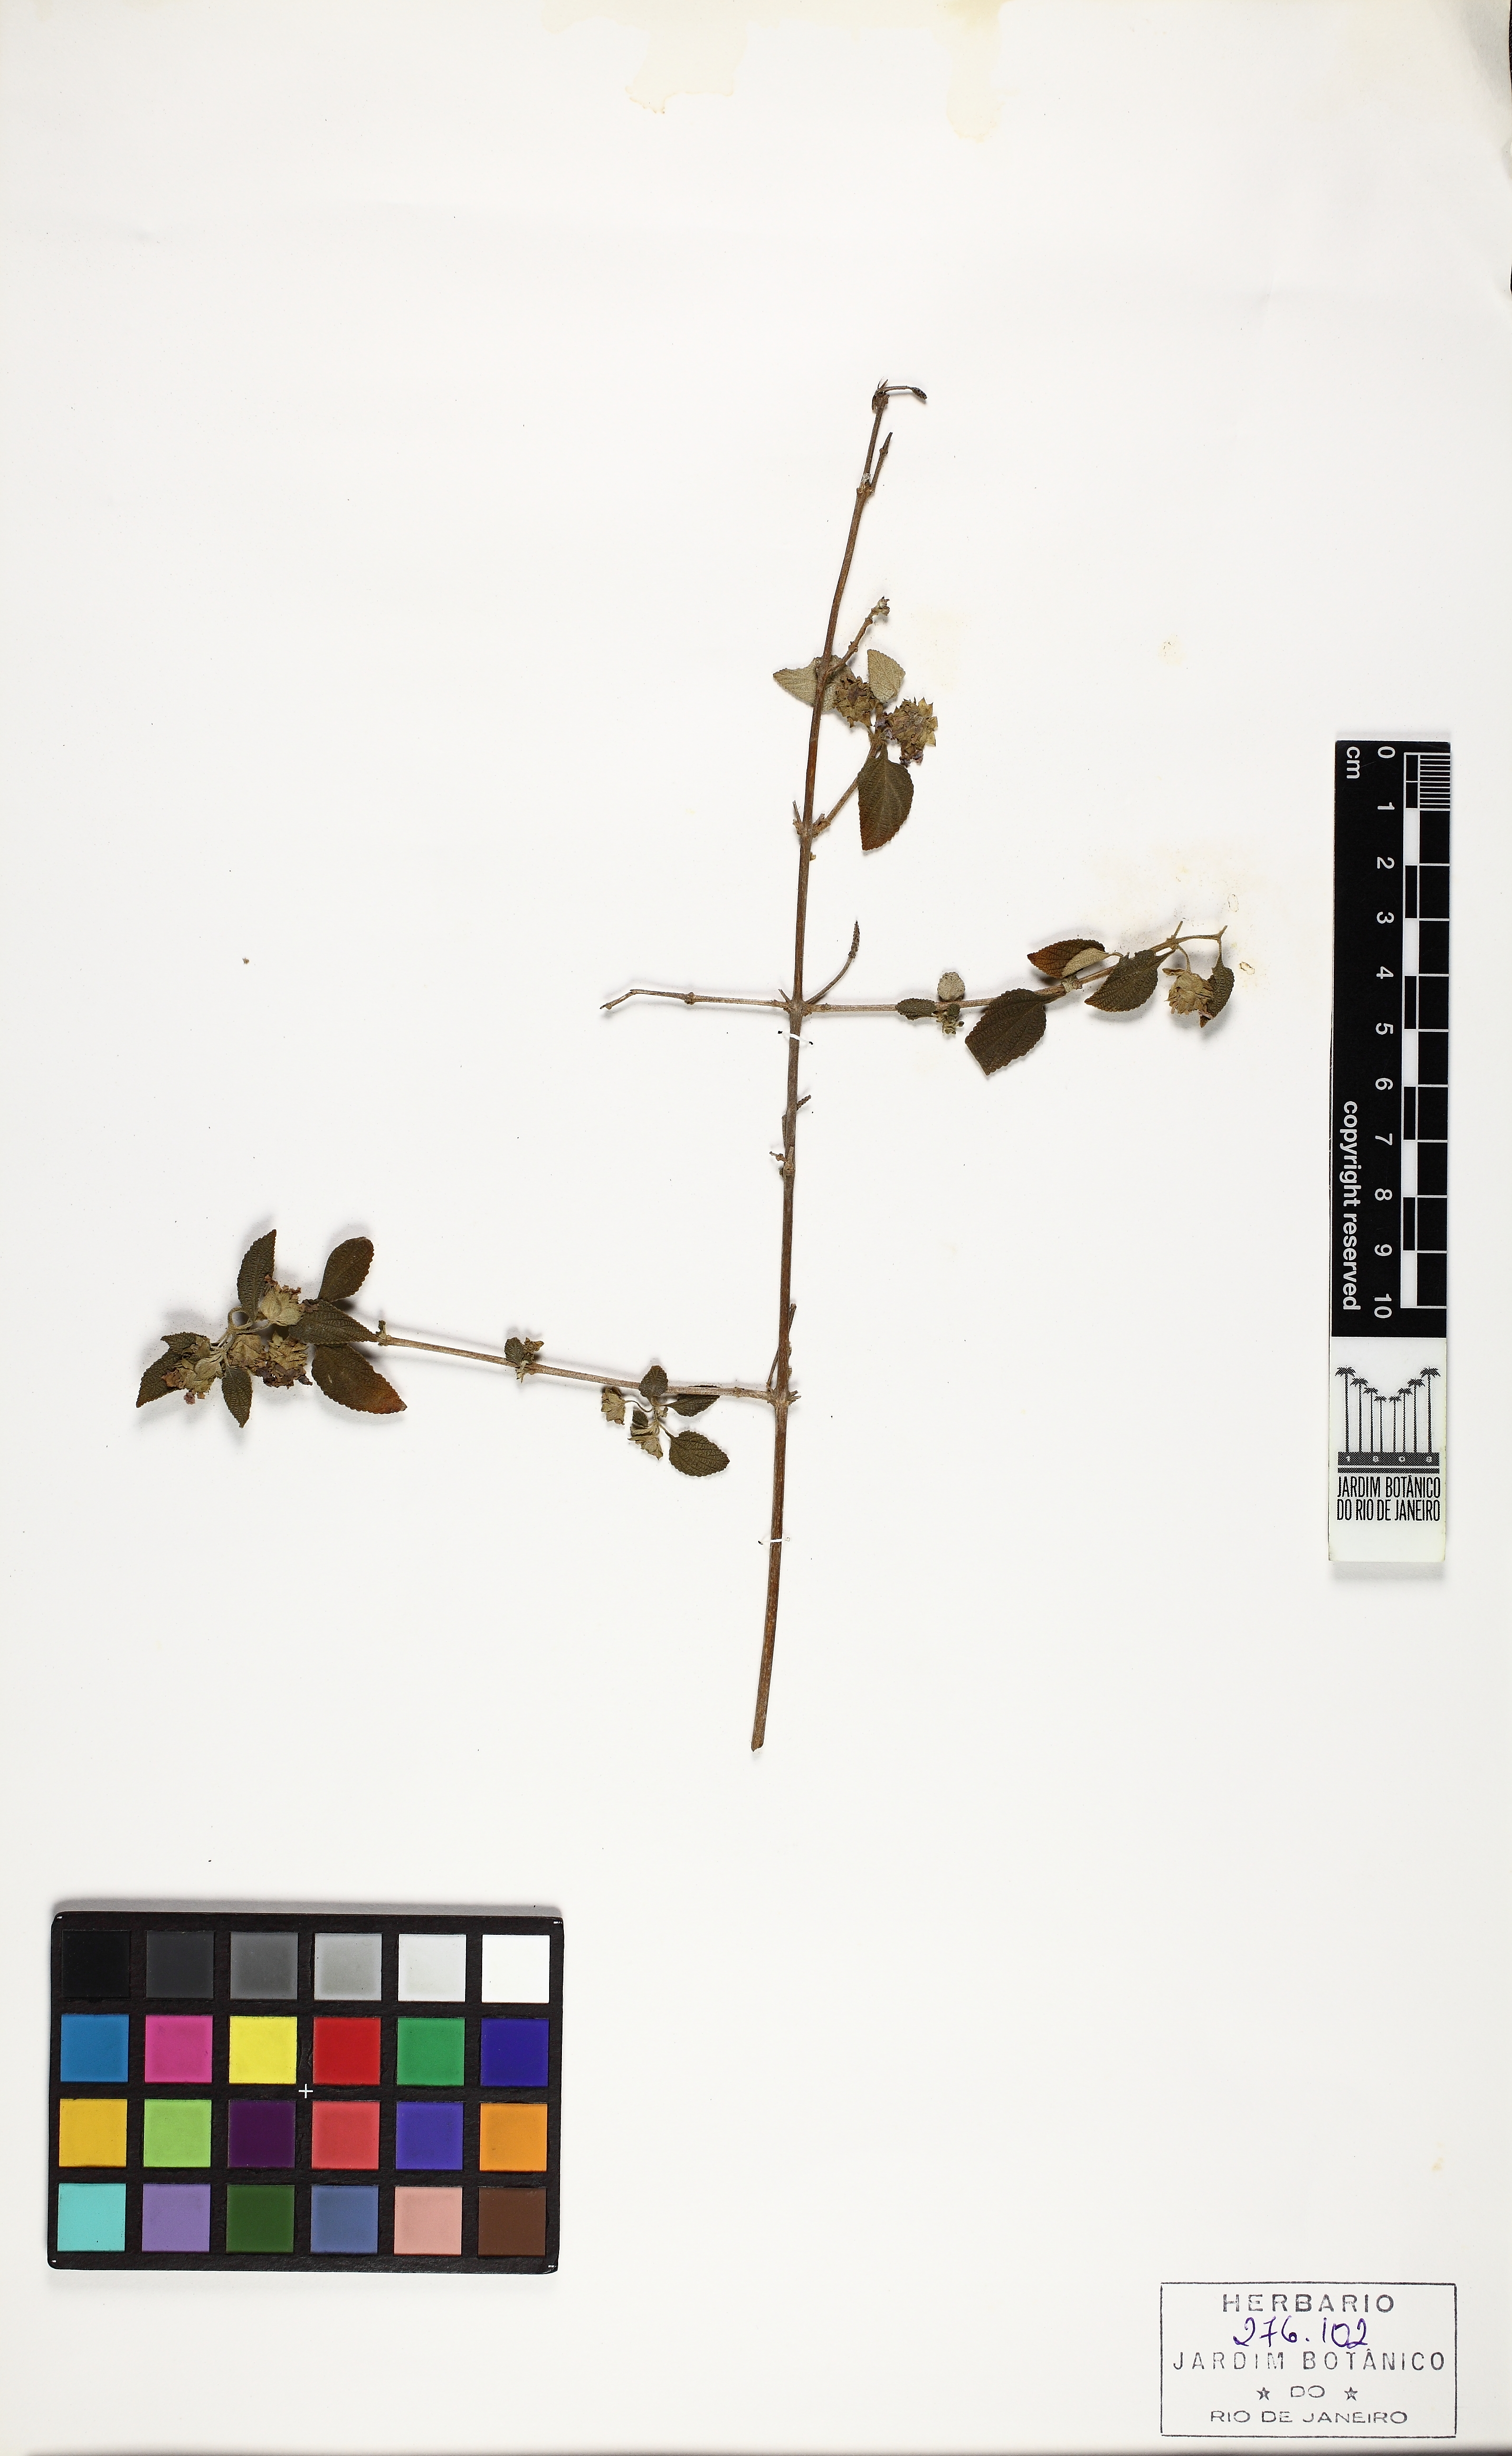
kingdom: Plantae
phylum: Tracheophyta
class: Magnoliopsida
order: Lamiales
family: Verbenaceae
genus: Lantana
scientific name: Lantana hypoleuca
